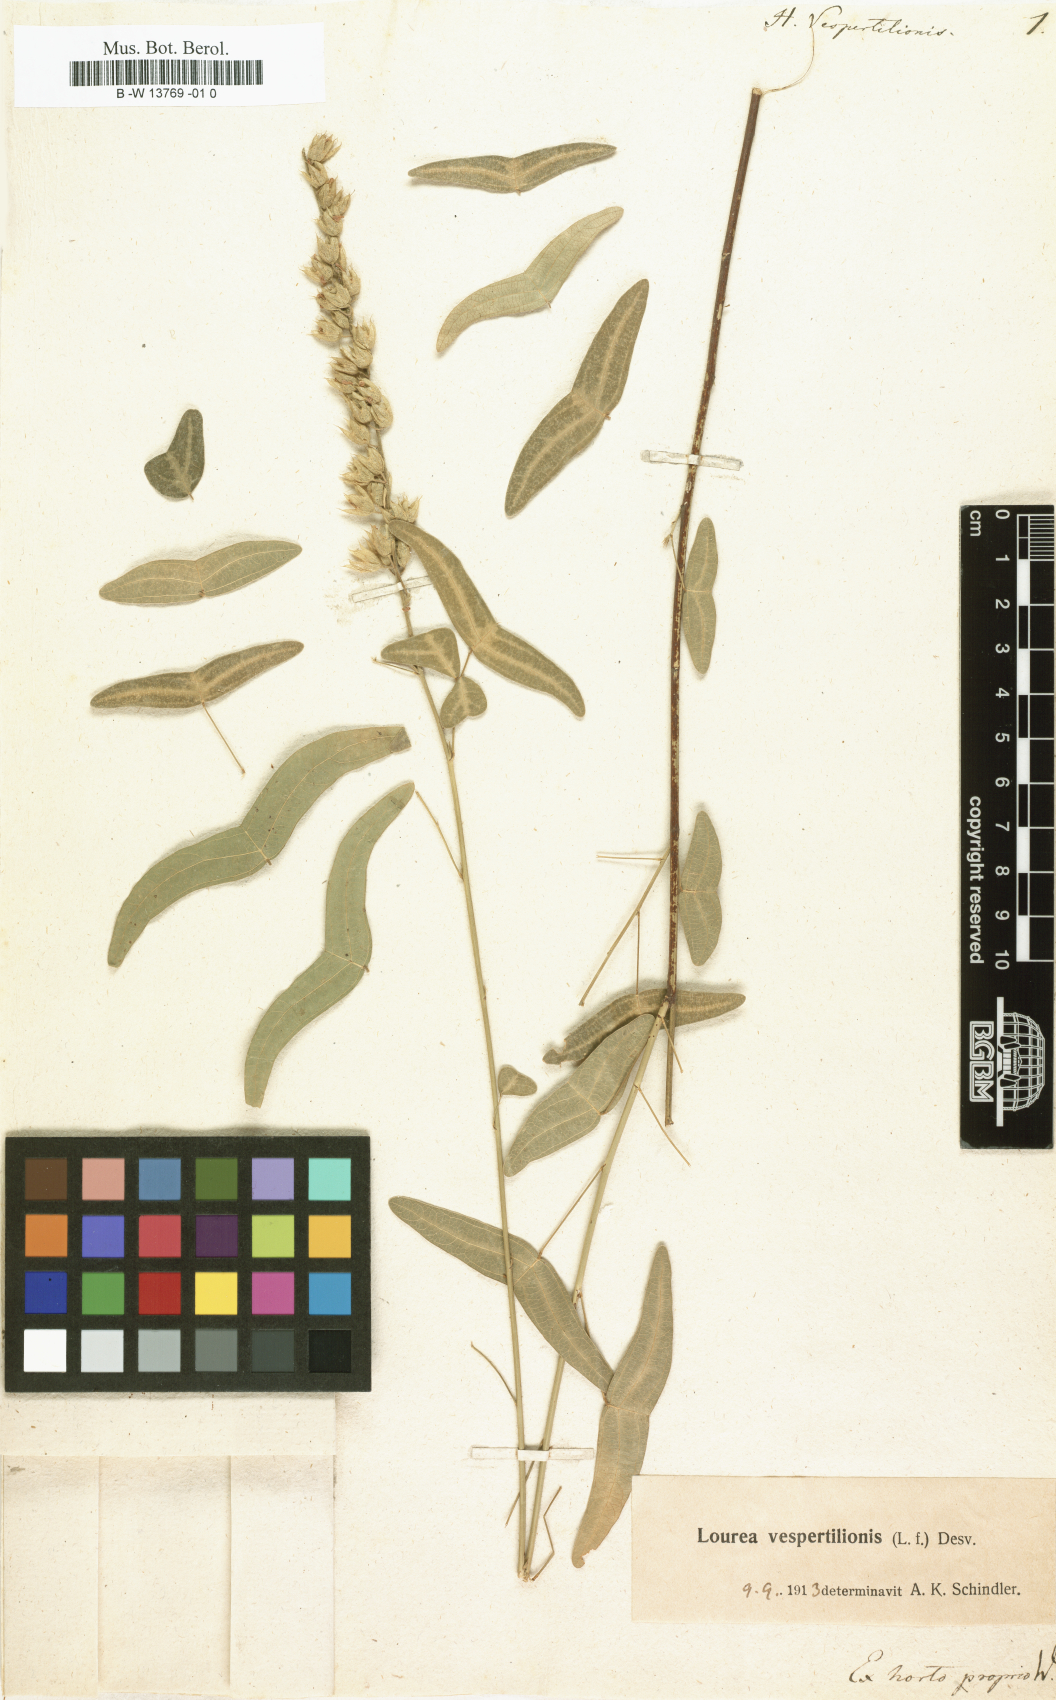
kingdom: Plantae
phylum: Tracheophyta
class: Magnoliopsida
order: Fabales
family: Fabaceae
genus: Christia
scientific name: Christia vespertilionis
